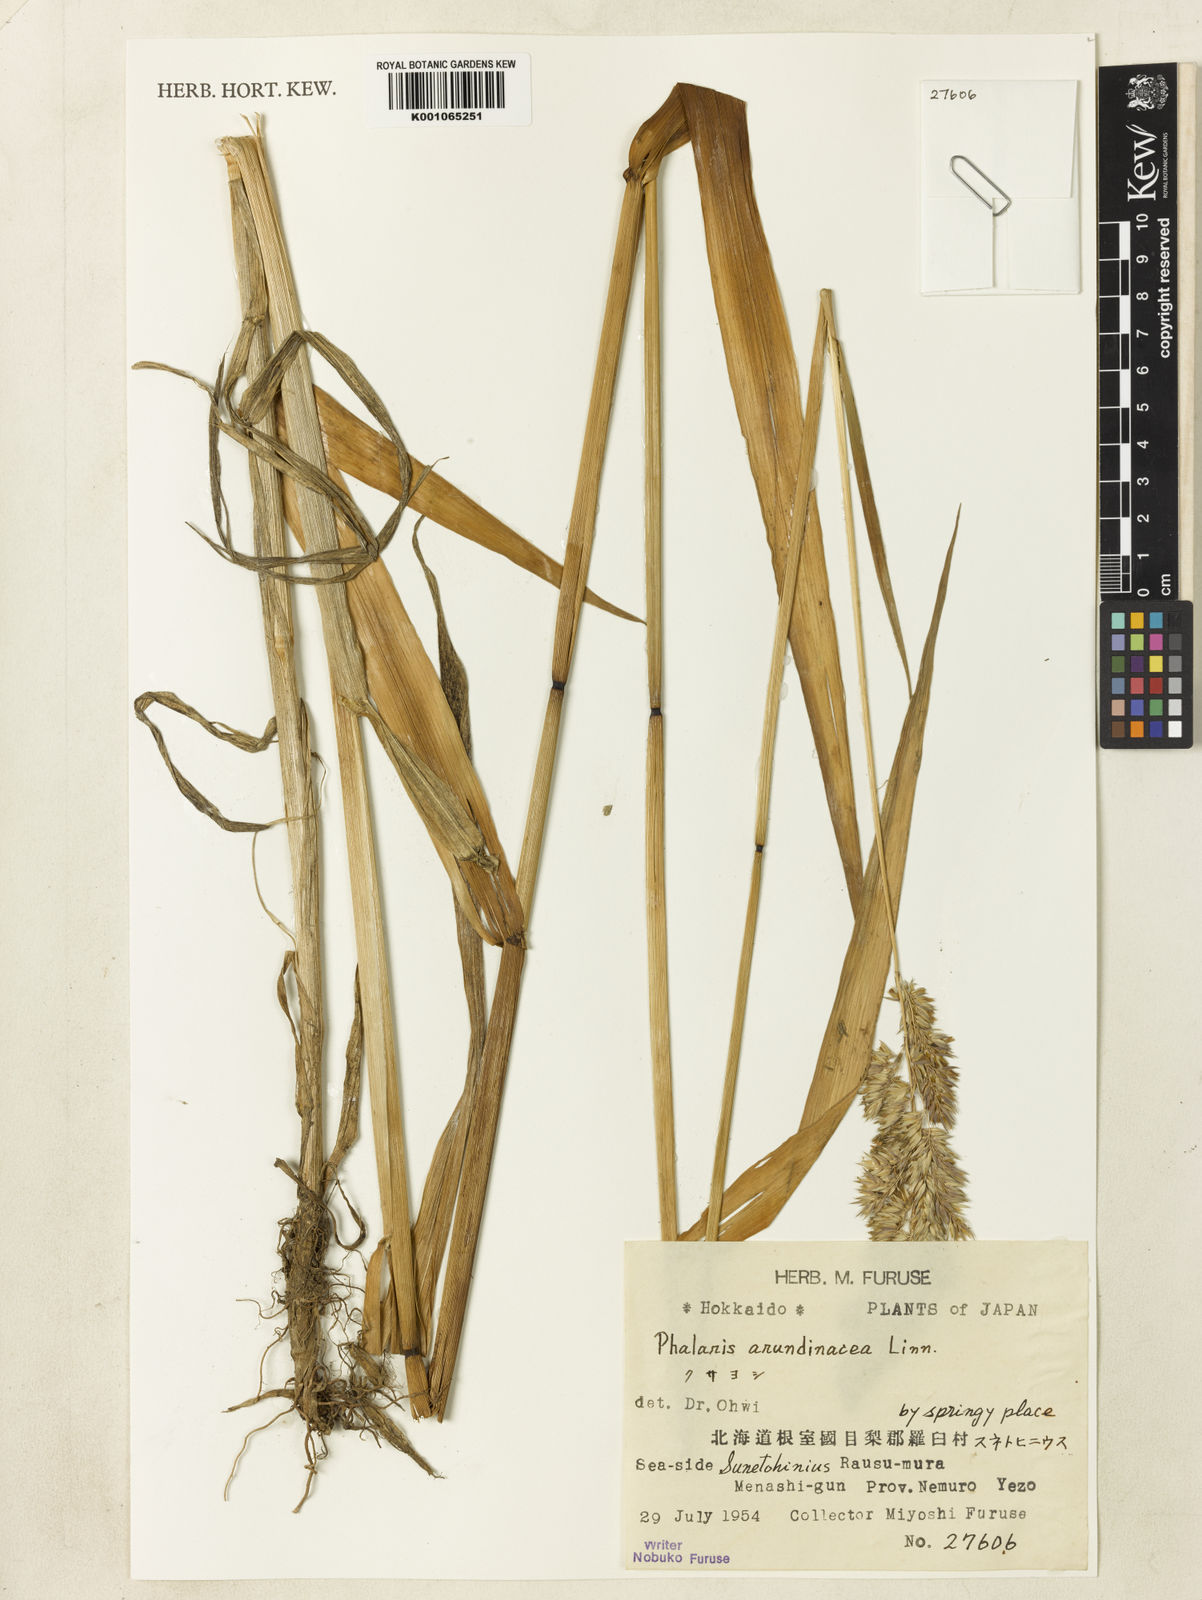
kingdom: Plantae
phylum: Tracheophyta
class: Liliopsida
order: Poales
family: Poaceae
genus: Phalaris
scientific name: Phalaris arundinacea
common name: Reed canary-grass
